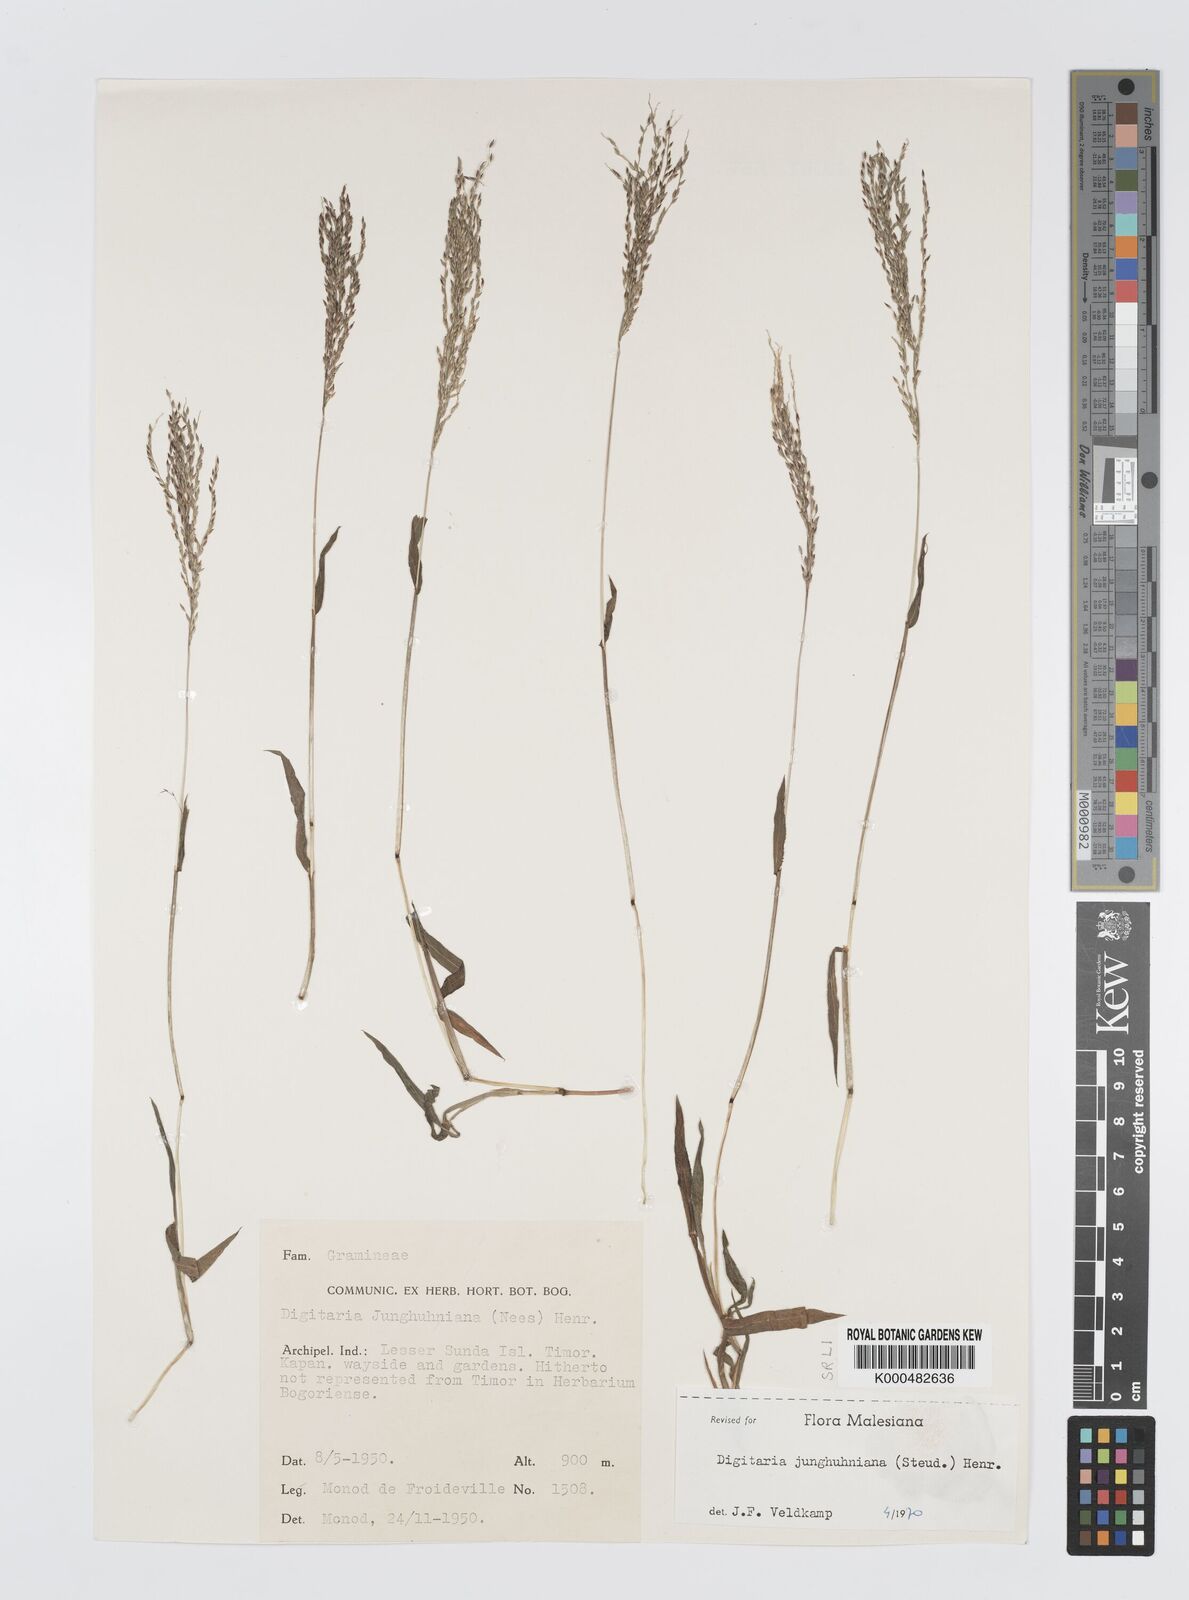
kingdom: Plantae
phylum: Tracheophyta
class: Liliopsida
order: Poales
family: Poaceae
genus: Digitaria
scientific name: Digitaria junghuhniana
